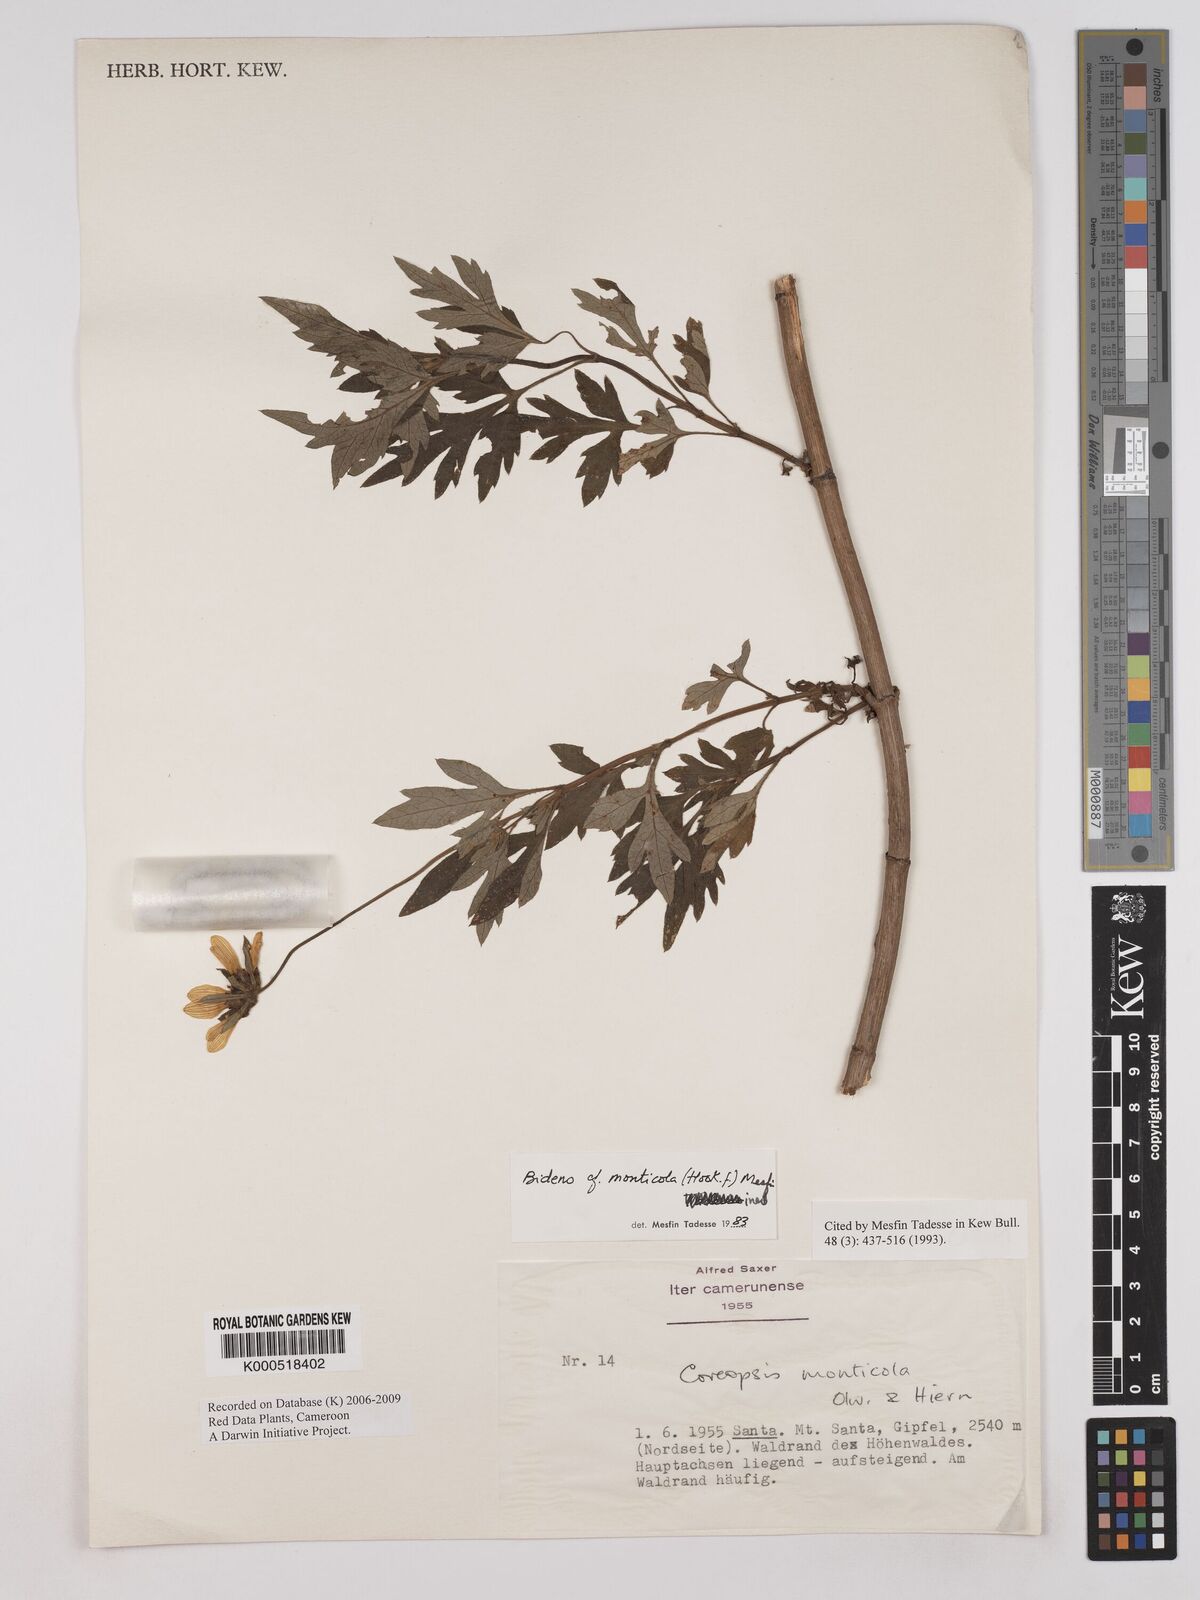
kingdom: Plantae
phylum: Tracheophyta
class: Magnoliopsida
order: Asterales
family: Asteraceae
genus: Bidens
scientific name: Bidens mannii
